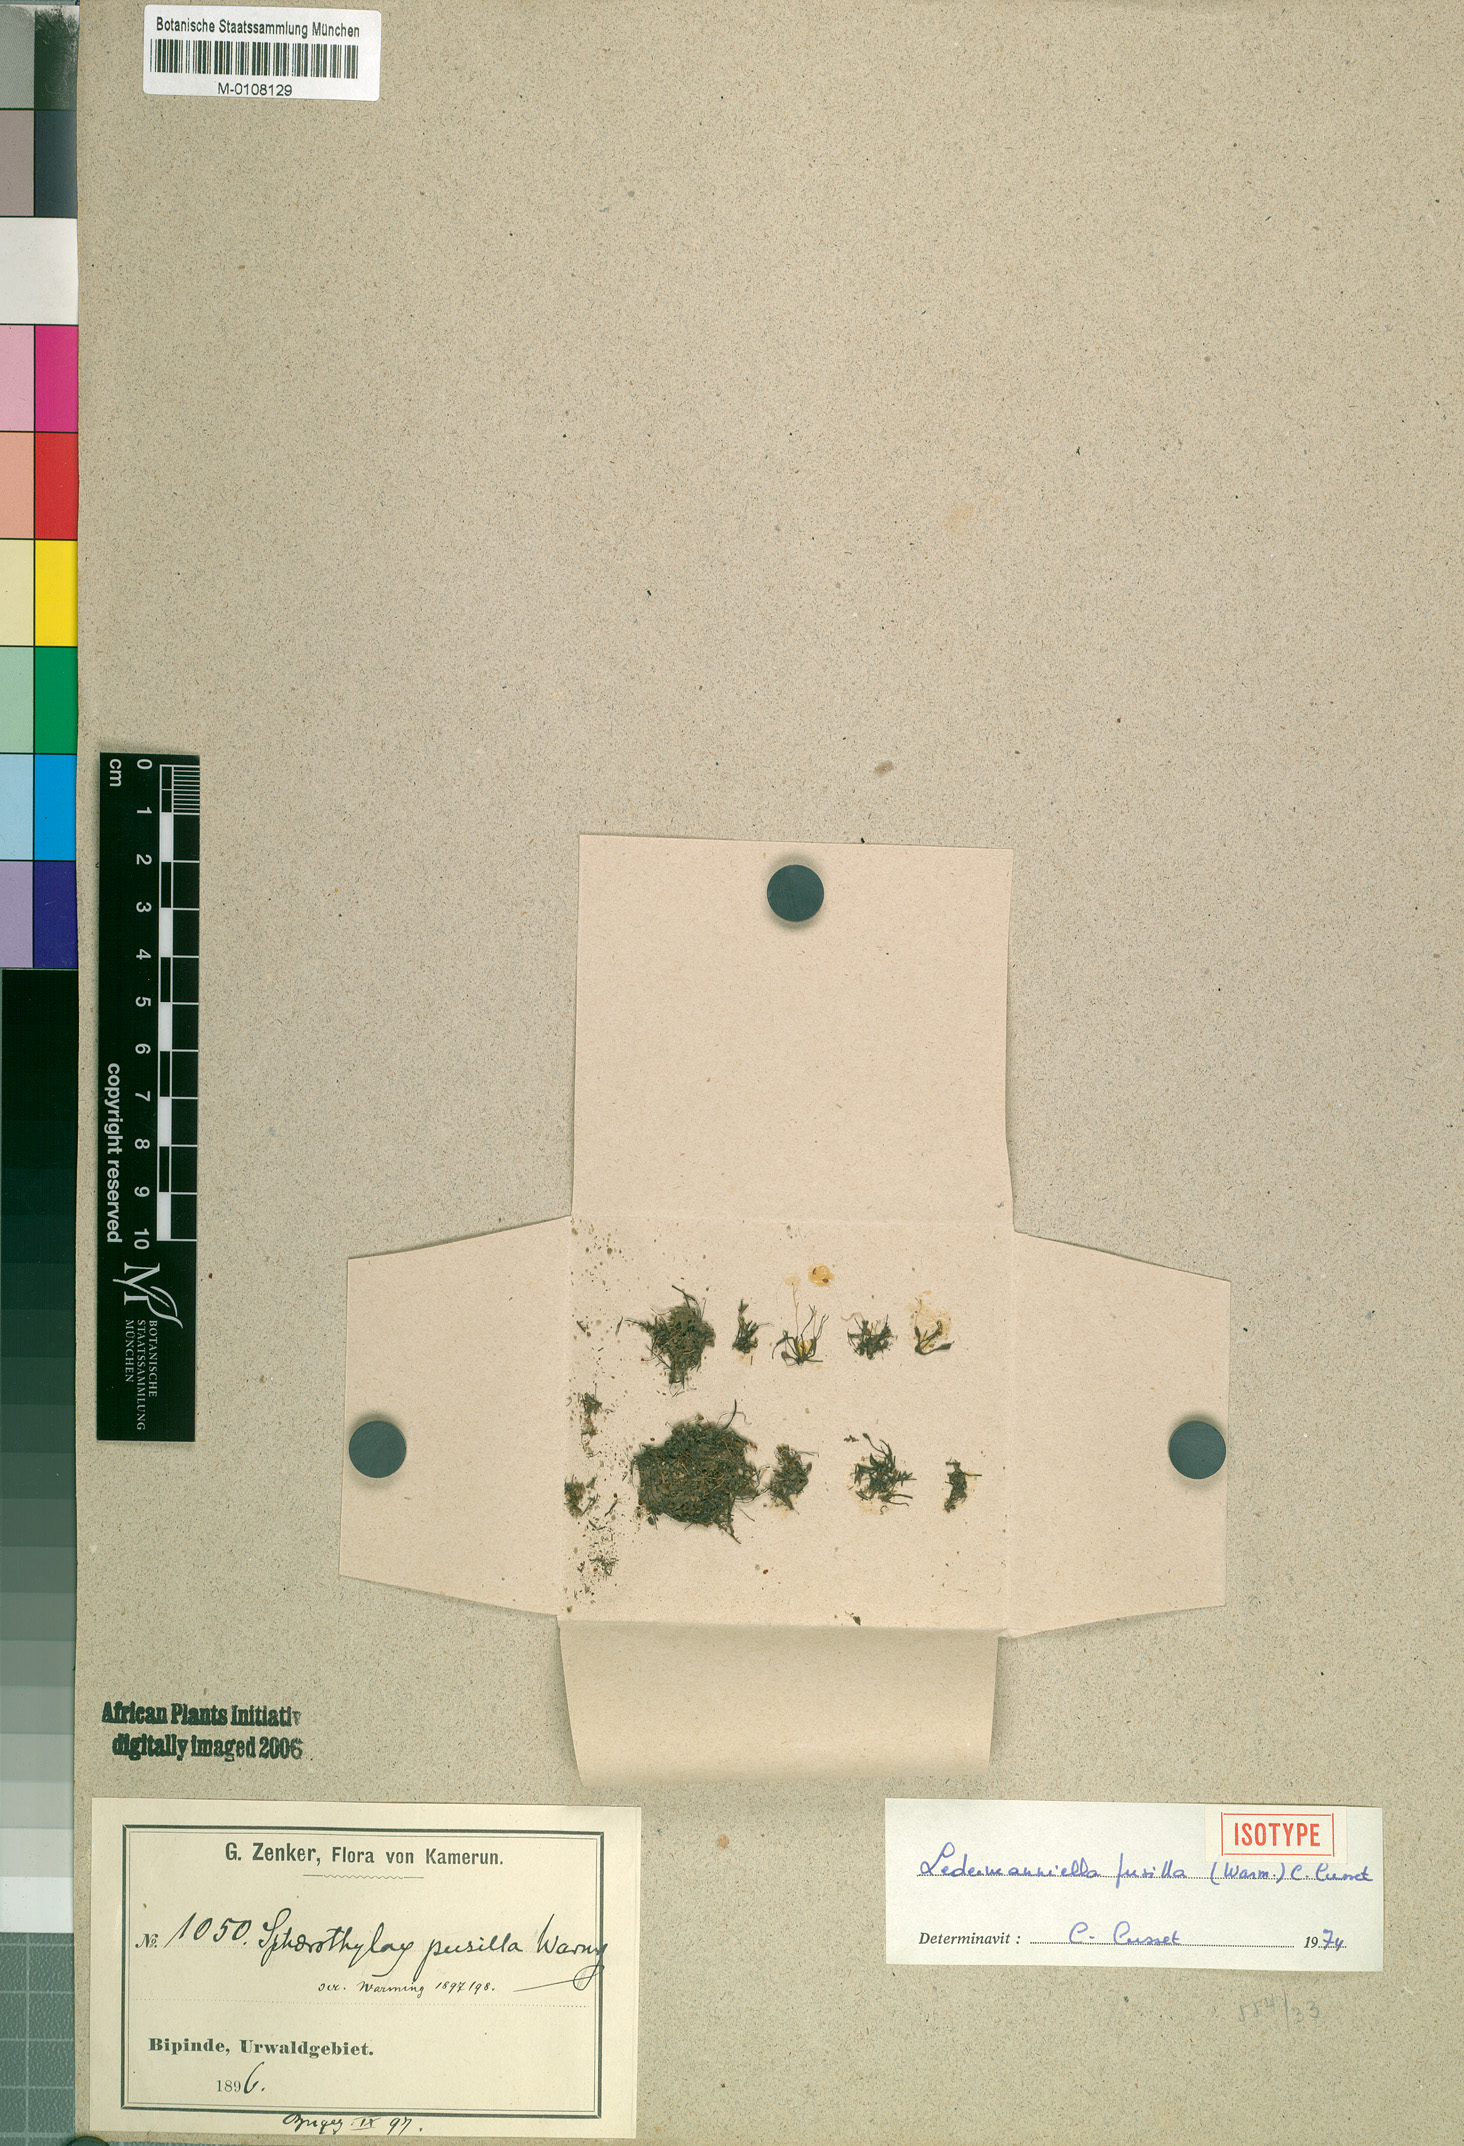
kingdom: Plantae
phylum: Tracheophyta
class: Magnoliopsida
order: Malpighiales
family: Podostemaceae
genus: Ledermanniella
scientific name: Ledermanniella pusilla
